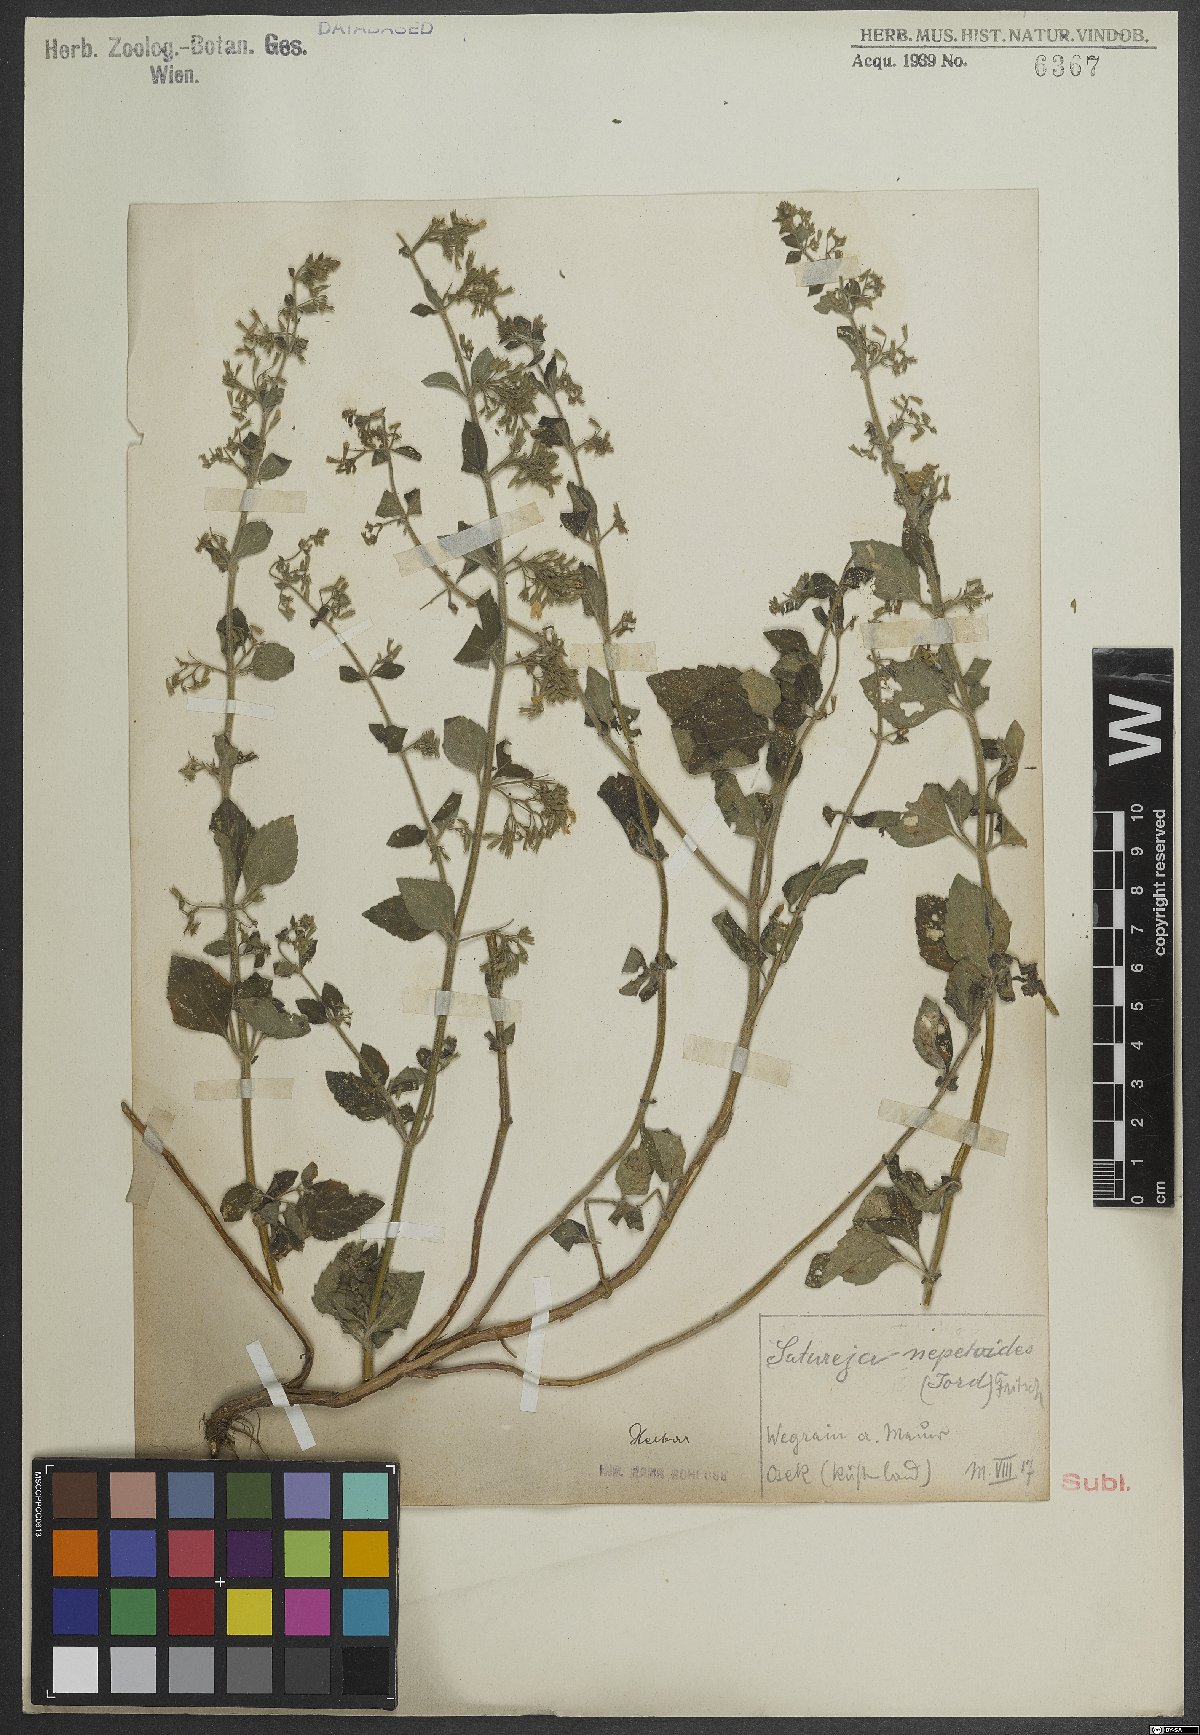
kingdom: Plantae
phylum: Tracheophyta
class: Magnoliopsida
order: Lamiales
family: Lamiaceae
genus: Clinopodium
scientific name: Clinopodium nepeta
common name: Lesser calamint
